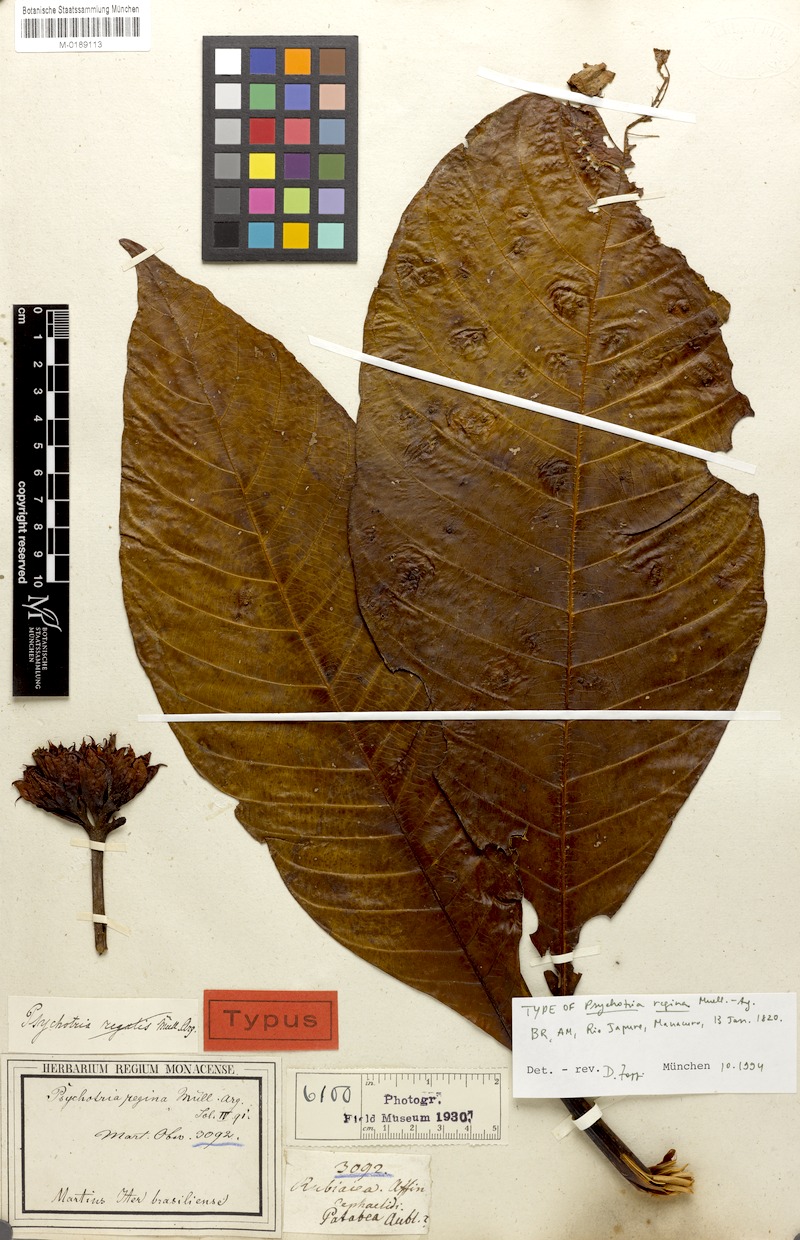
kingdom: Plantae
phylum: Tracheophyta
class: Magnoliopsida
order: Gentianales
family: Rubiaceae
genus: Palicourea
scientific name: Palicourea regina
